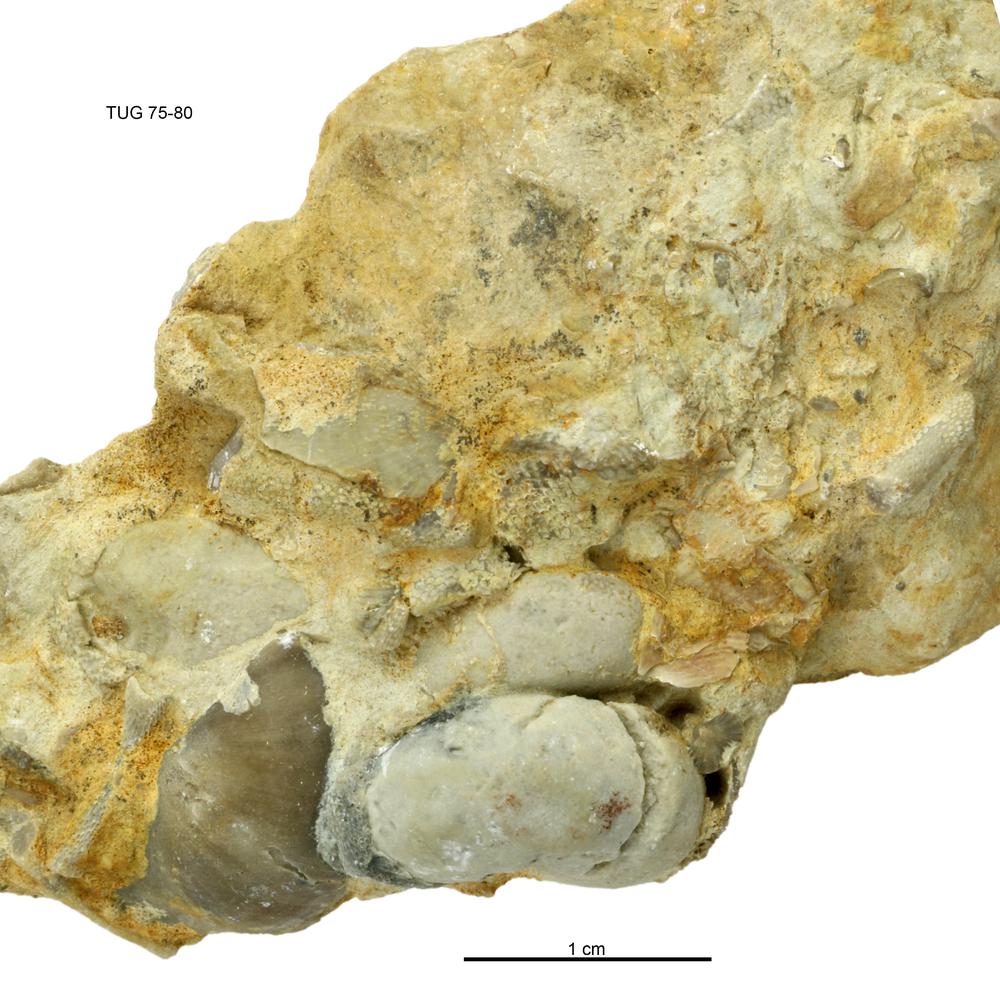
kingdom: Animalia
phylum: Mollusca
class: Gastropoda
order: Pleurotomariida
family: Murchisoniidae
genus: Murchisonia
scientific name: Murchisonia insignis
